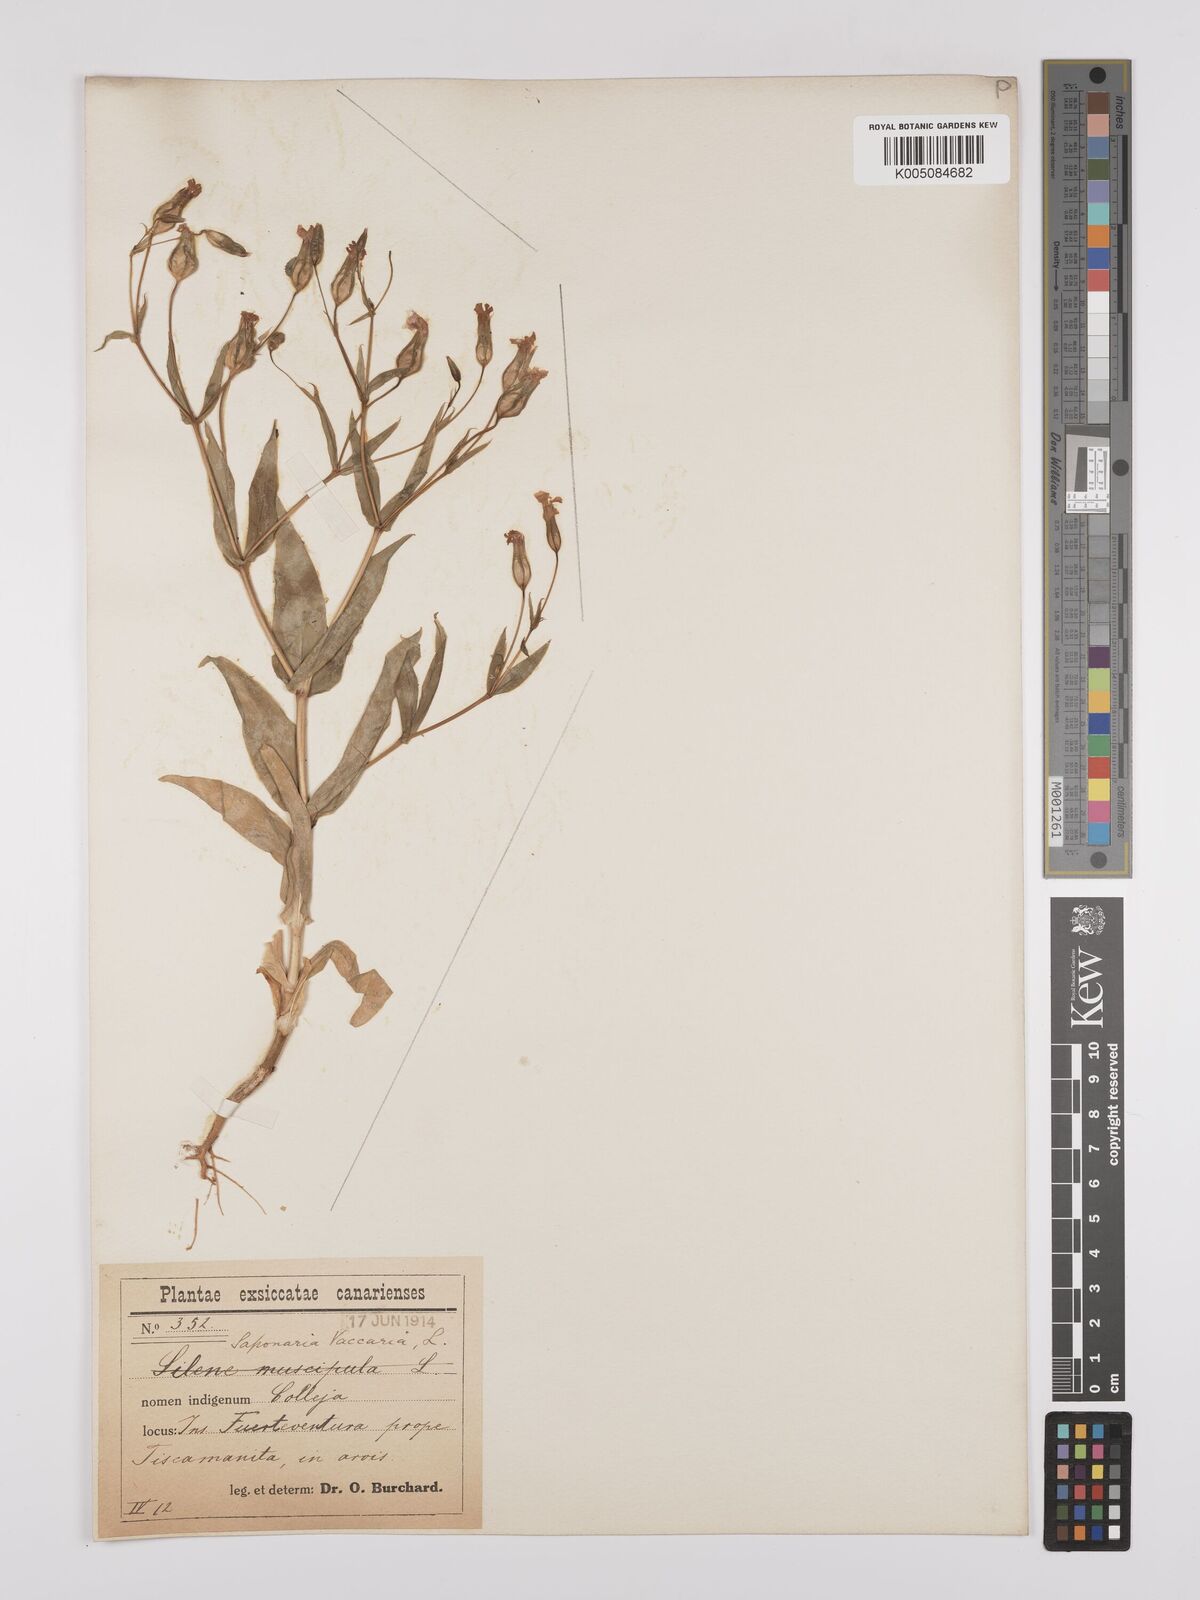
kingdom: Plantae
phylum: Tracheophyta
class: Magnoliopsida
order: Caryophyllales
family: Caryophyllaceae
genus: Gypsophila
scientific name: Gypsophila vaccaria
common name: Cow soapwort
